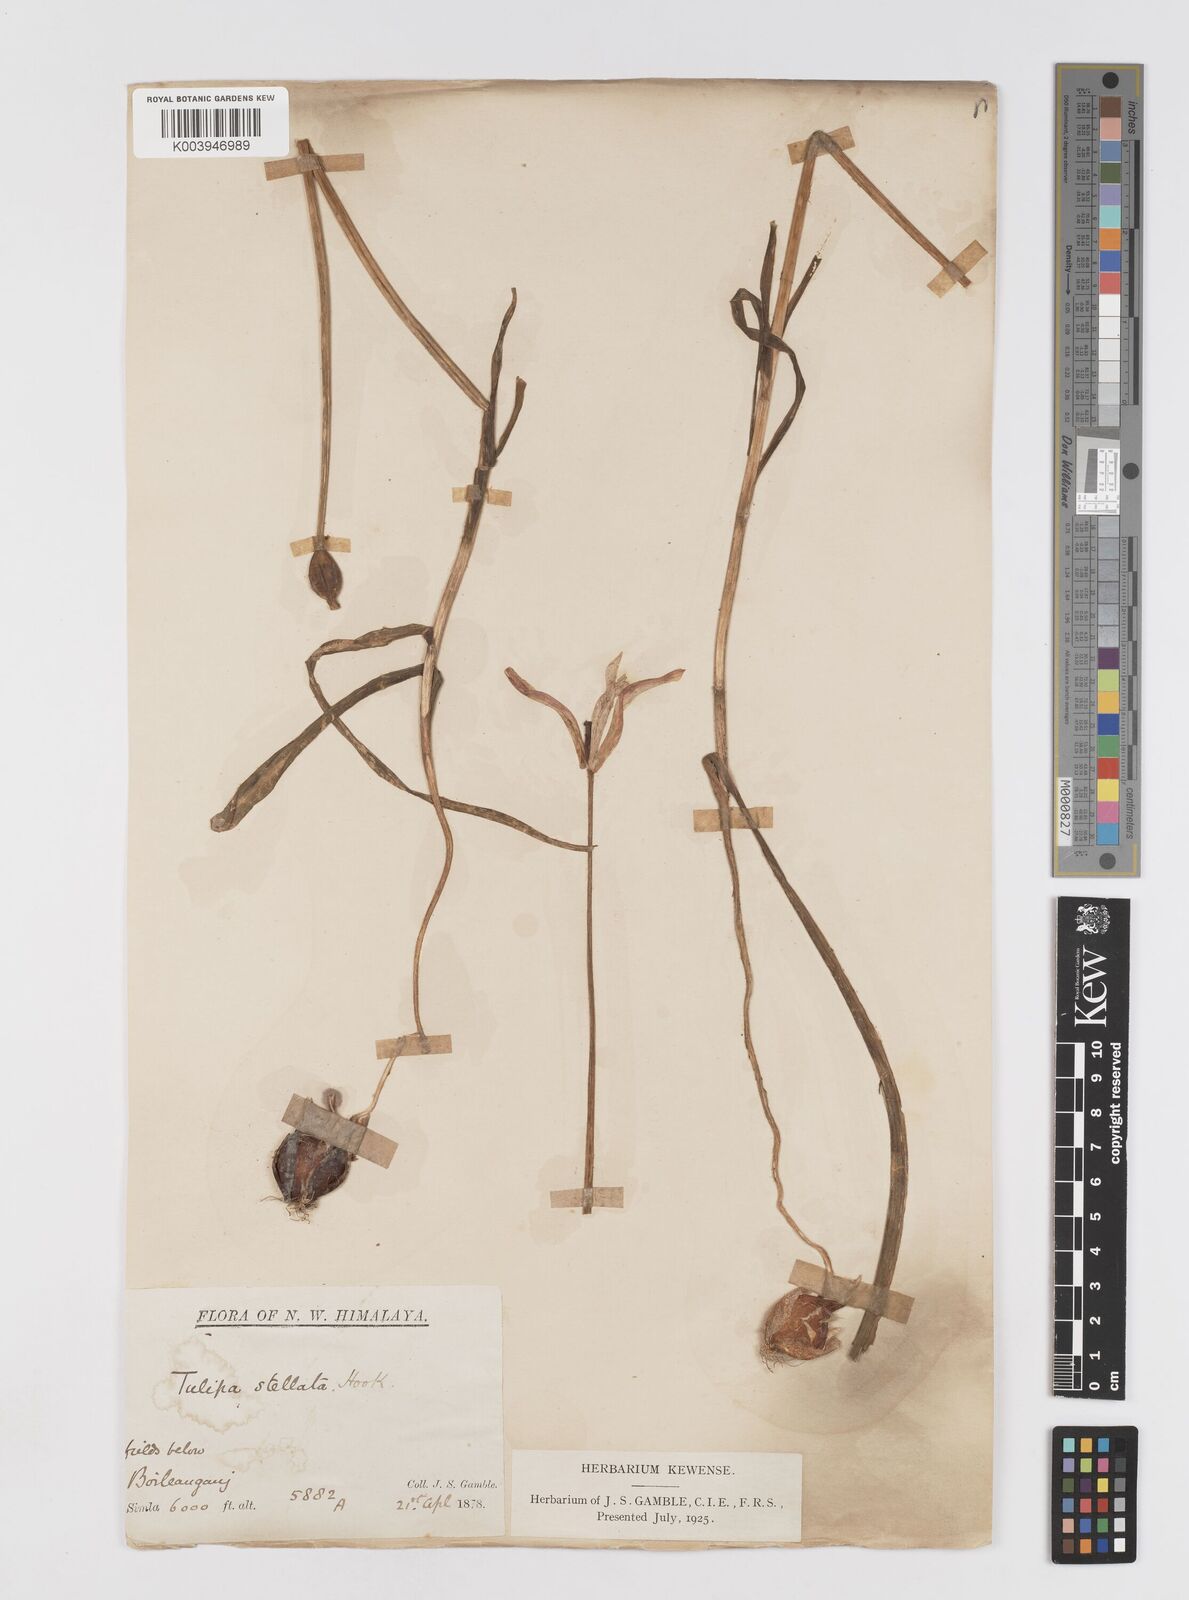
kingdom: Plantae
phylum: Tracheophyta
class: Liliopsida
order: Liliales
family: Liliaceae
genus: Tulipa
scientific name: Tulipa clusiana
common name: Lady tulip
